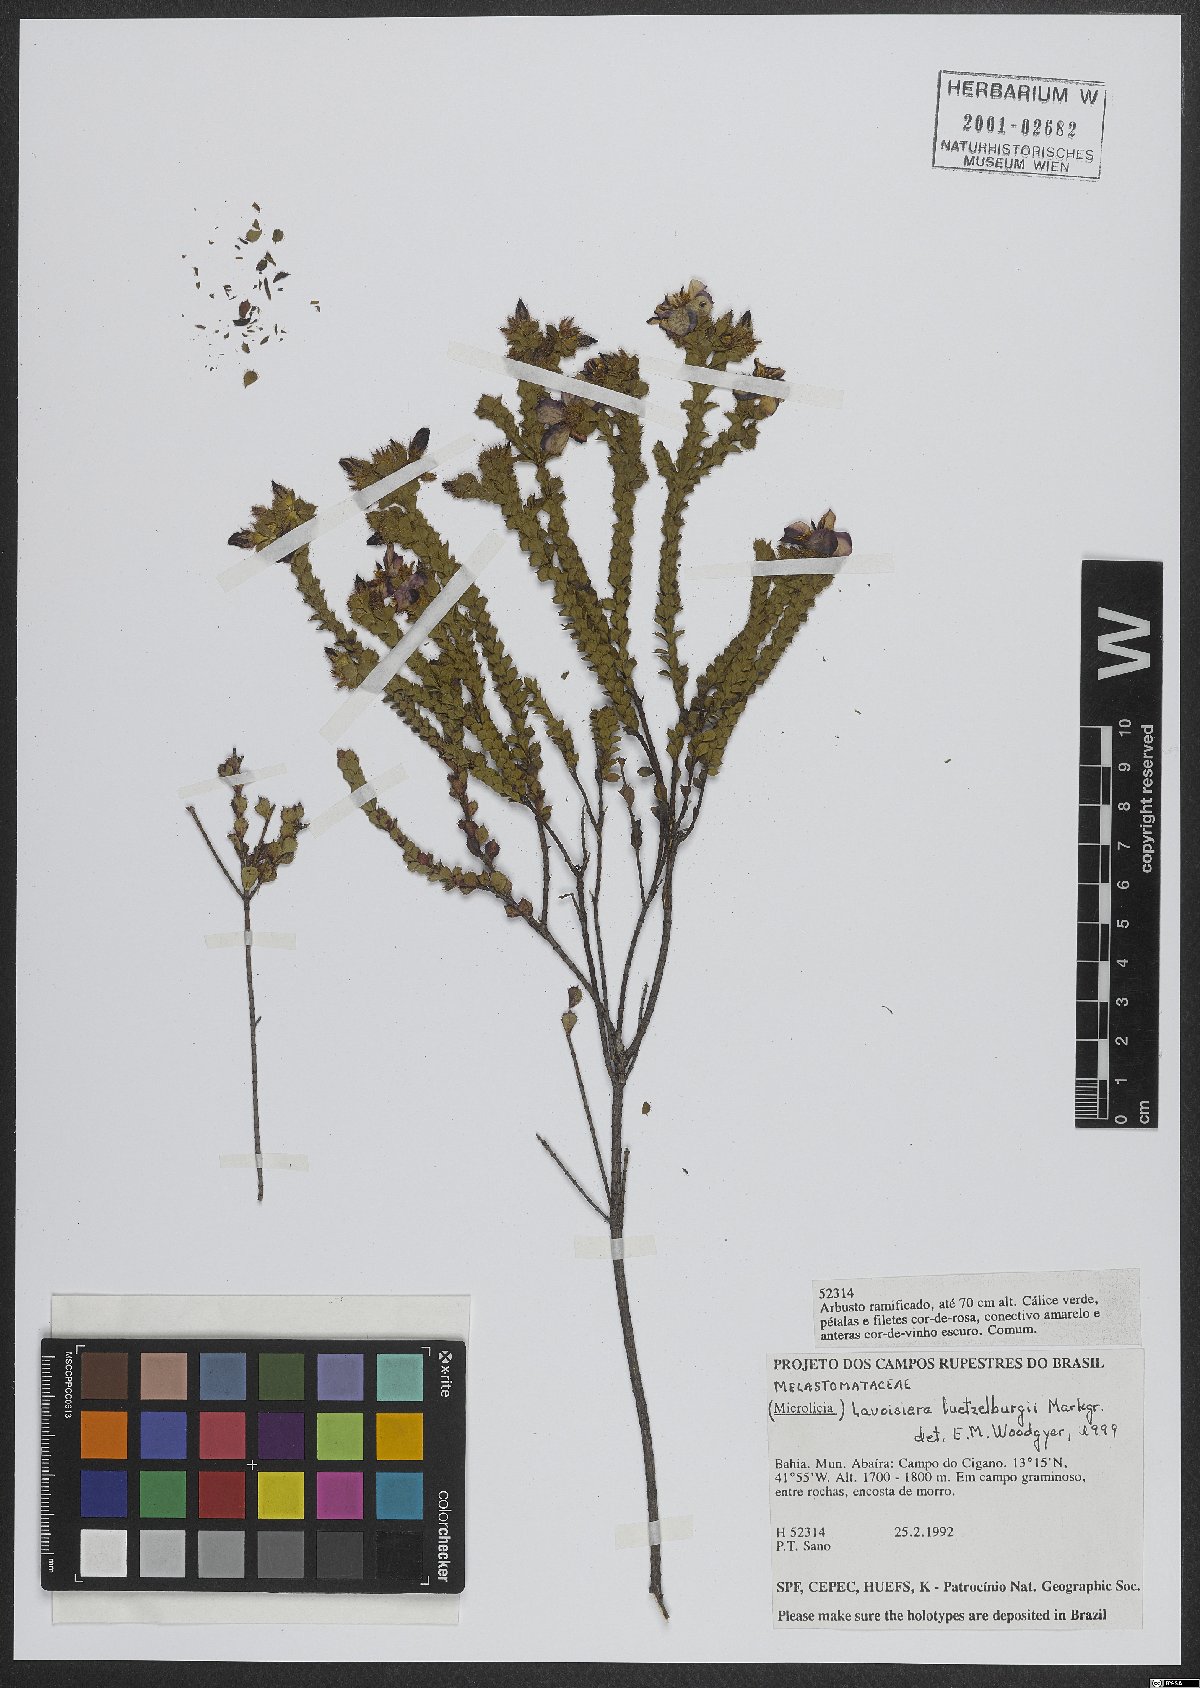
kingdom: Plantae
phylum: Tracheophyta
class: Magnoliopsida
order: Myrtales
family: Melastomataceae
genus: Microlicia
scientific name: Microlicia giuliettiana
